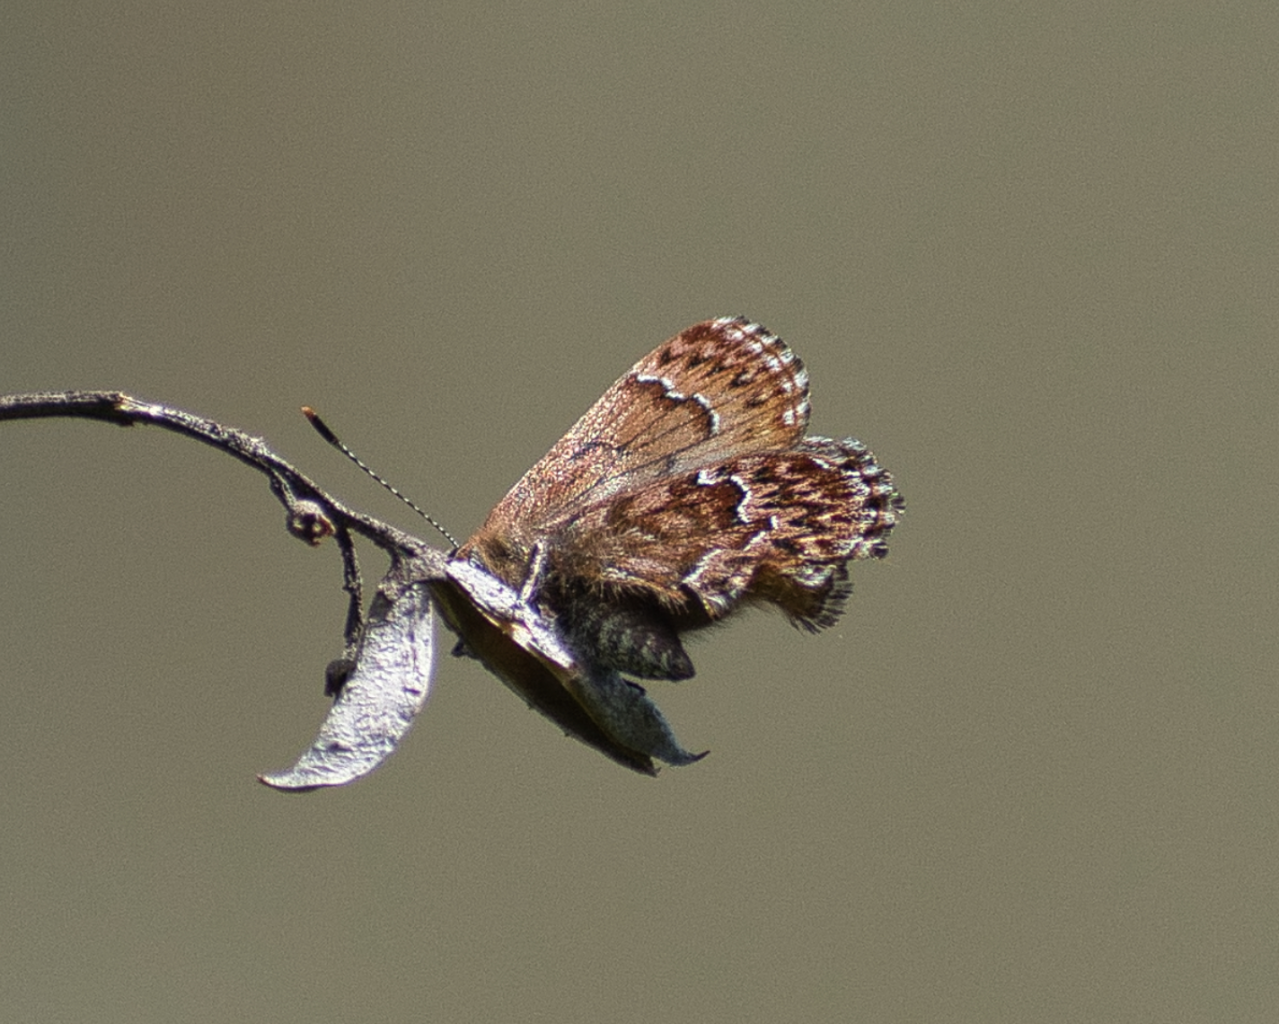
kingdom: Animalia
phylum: Arthropoda
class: Insecta
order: Lepidoptera
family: Lycaenidae
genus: Incisalia
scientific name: Incisalia eryphon
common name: Western Pine Elfin
